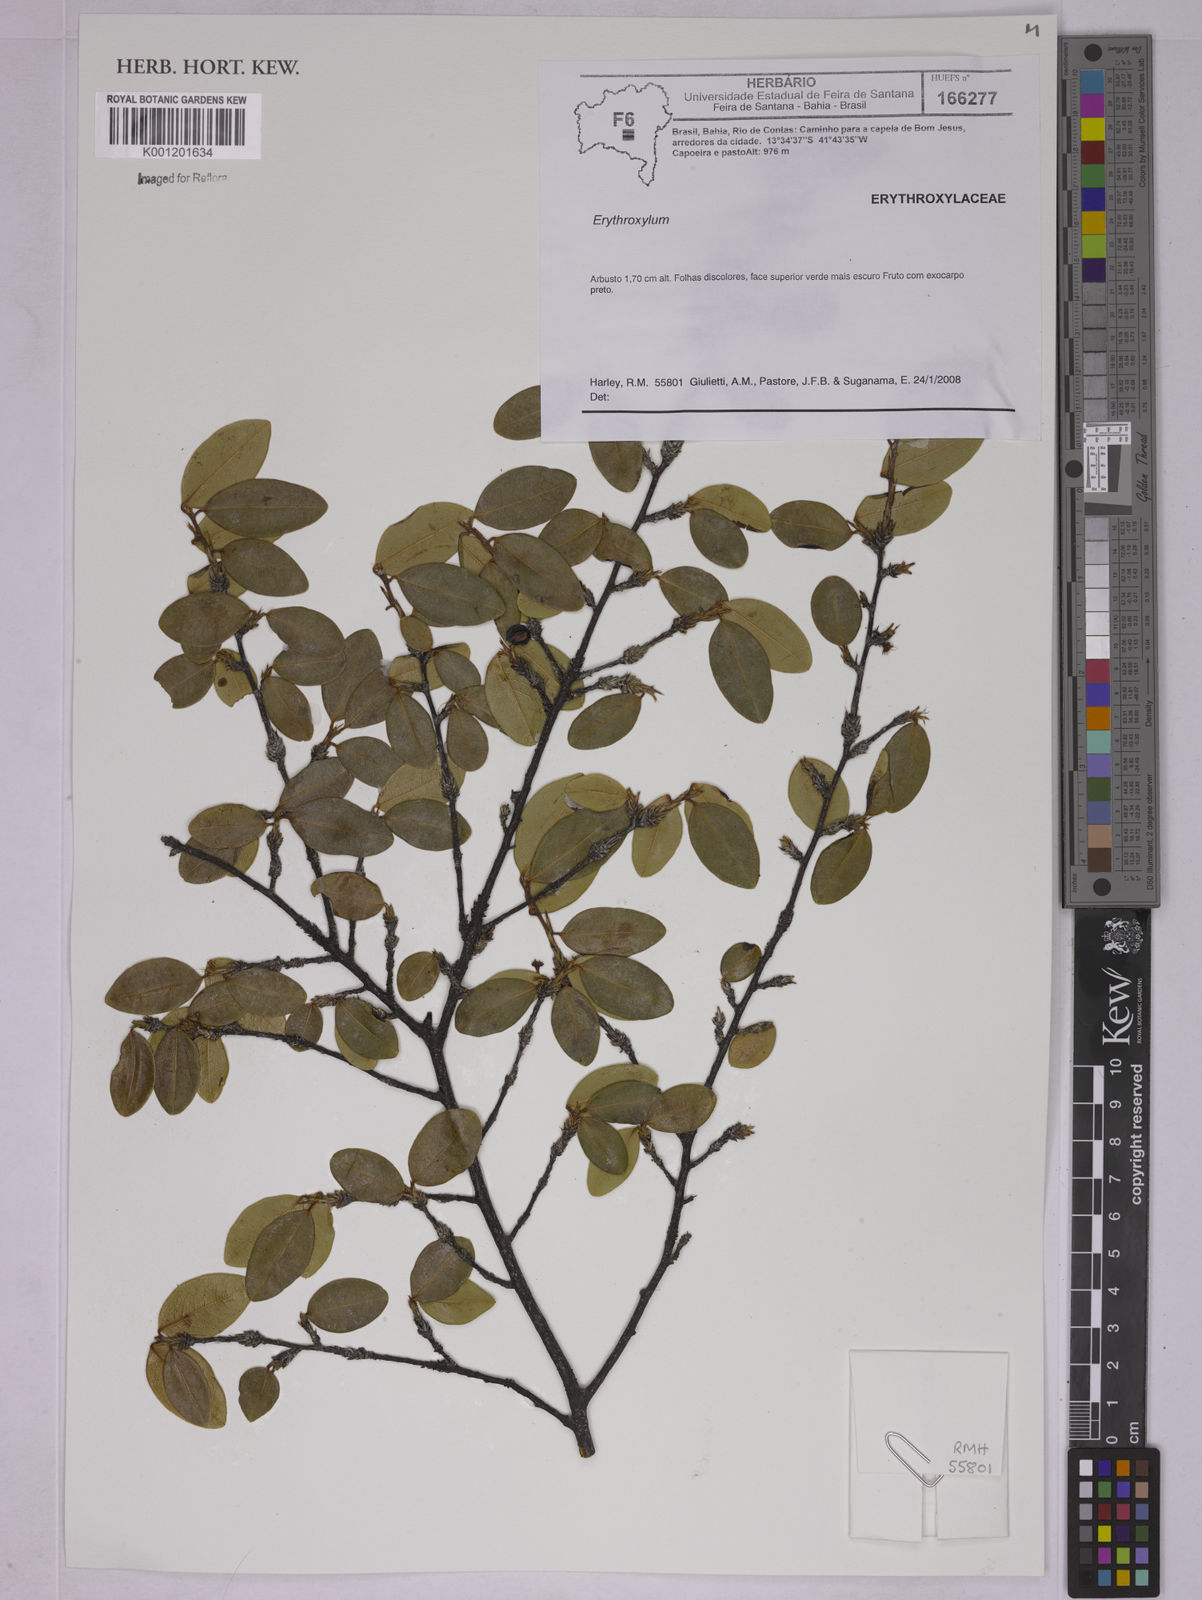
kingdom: Plantae
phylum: Tracheophyta
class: Magnoliopsida
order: Malpighiales
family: Erythroxylaceae
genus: Erythroxylum
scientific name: Erythroxylum
